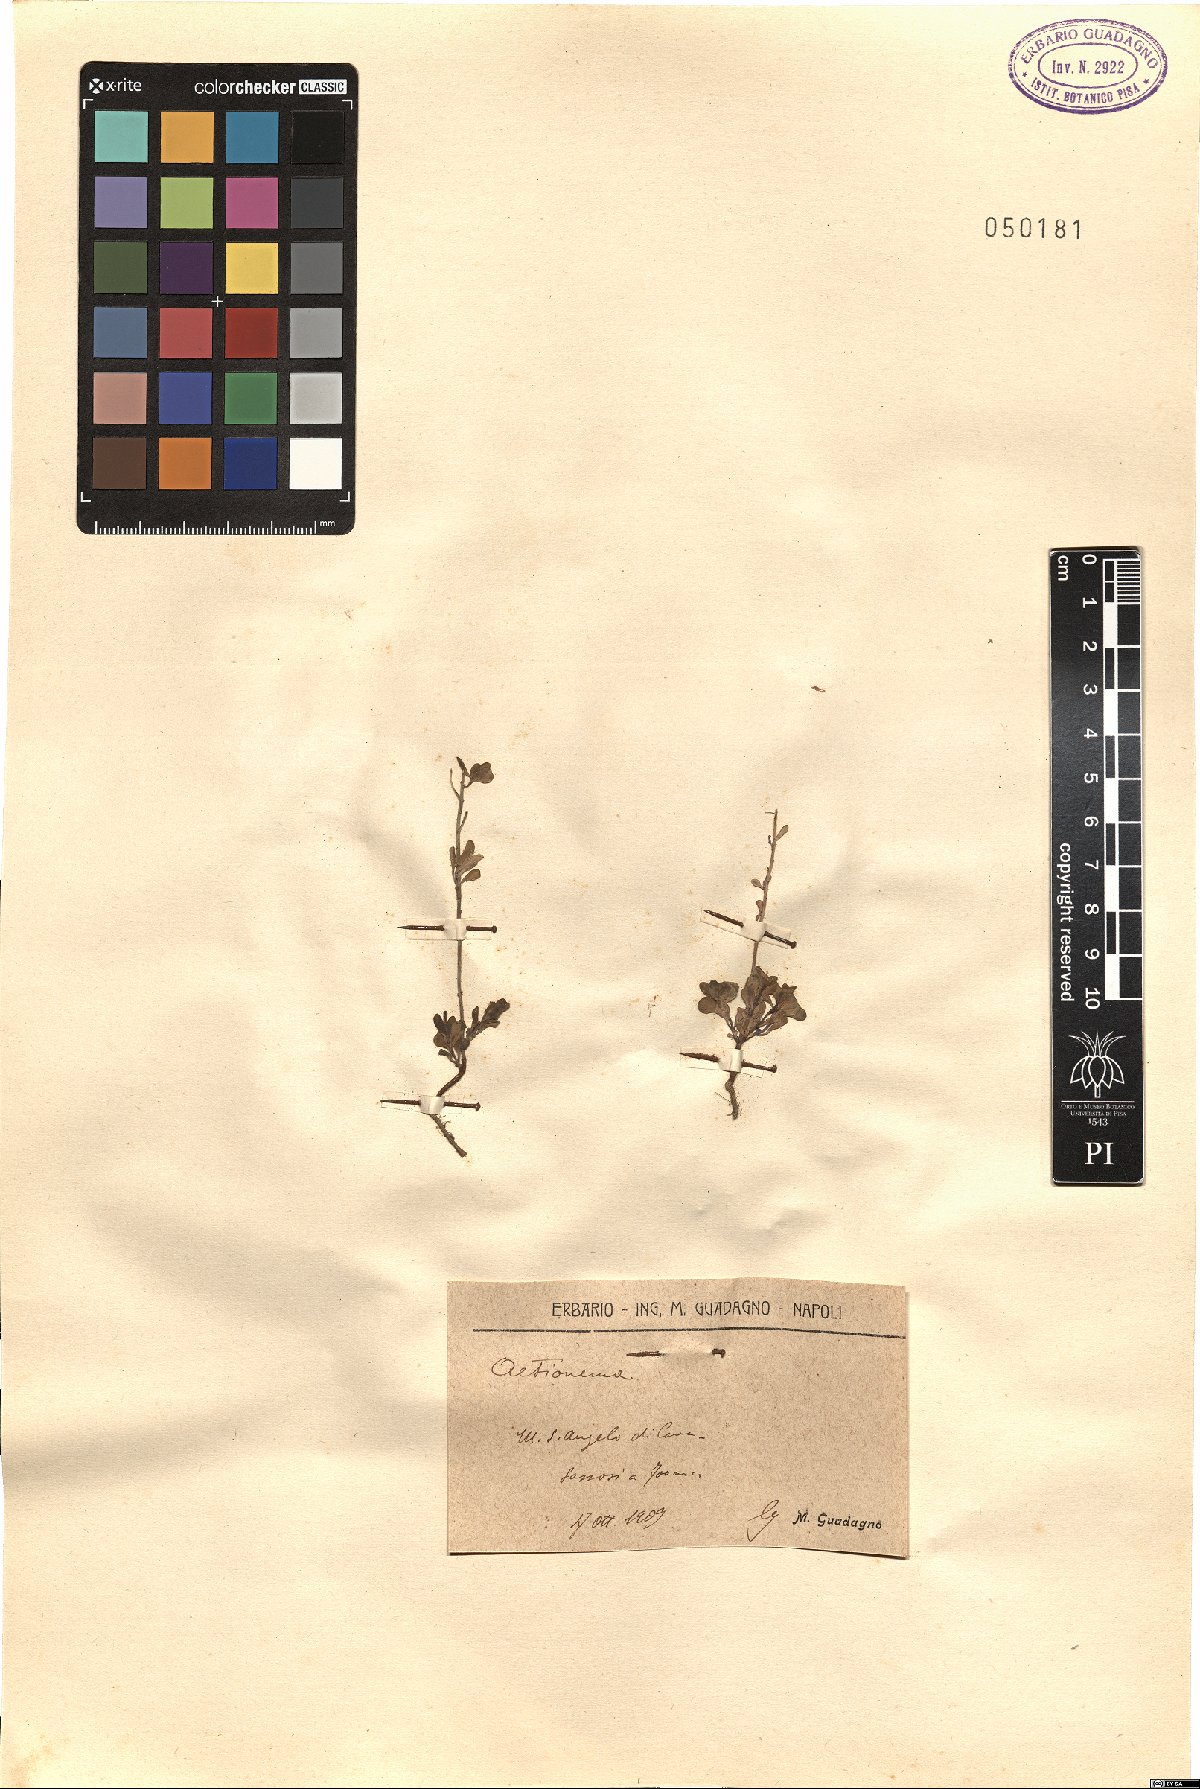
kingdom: Plantae
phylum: Tracheophyta
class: Magnoliopsida
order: Brassicales
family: Brassicaceae
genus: Aethionema
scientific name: Aethionema
